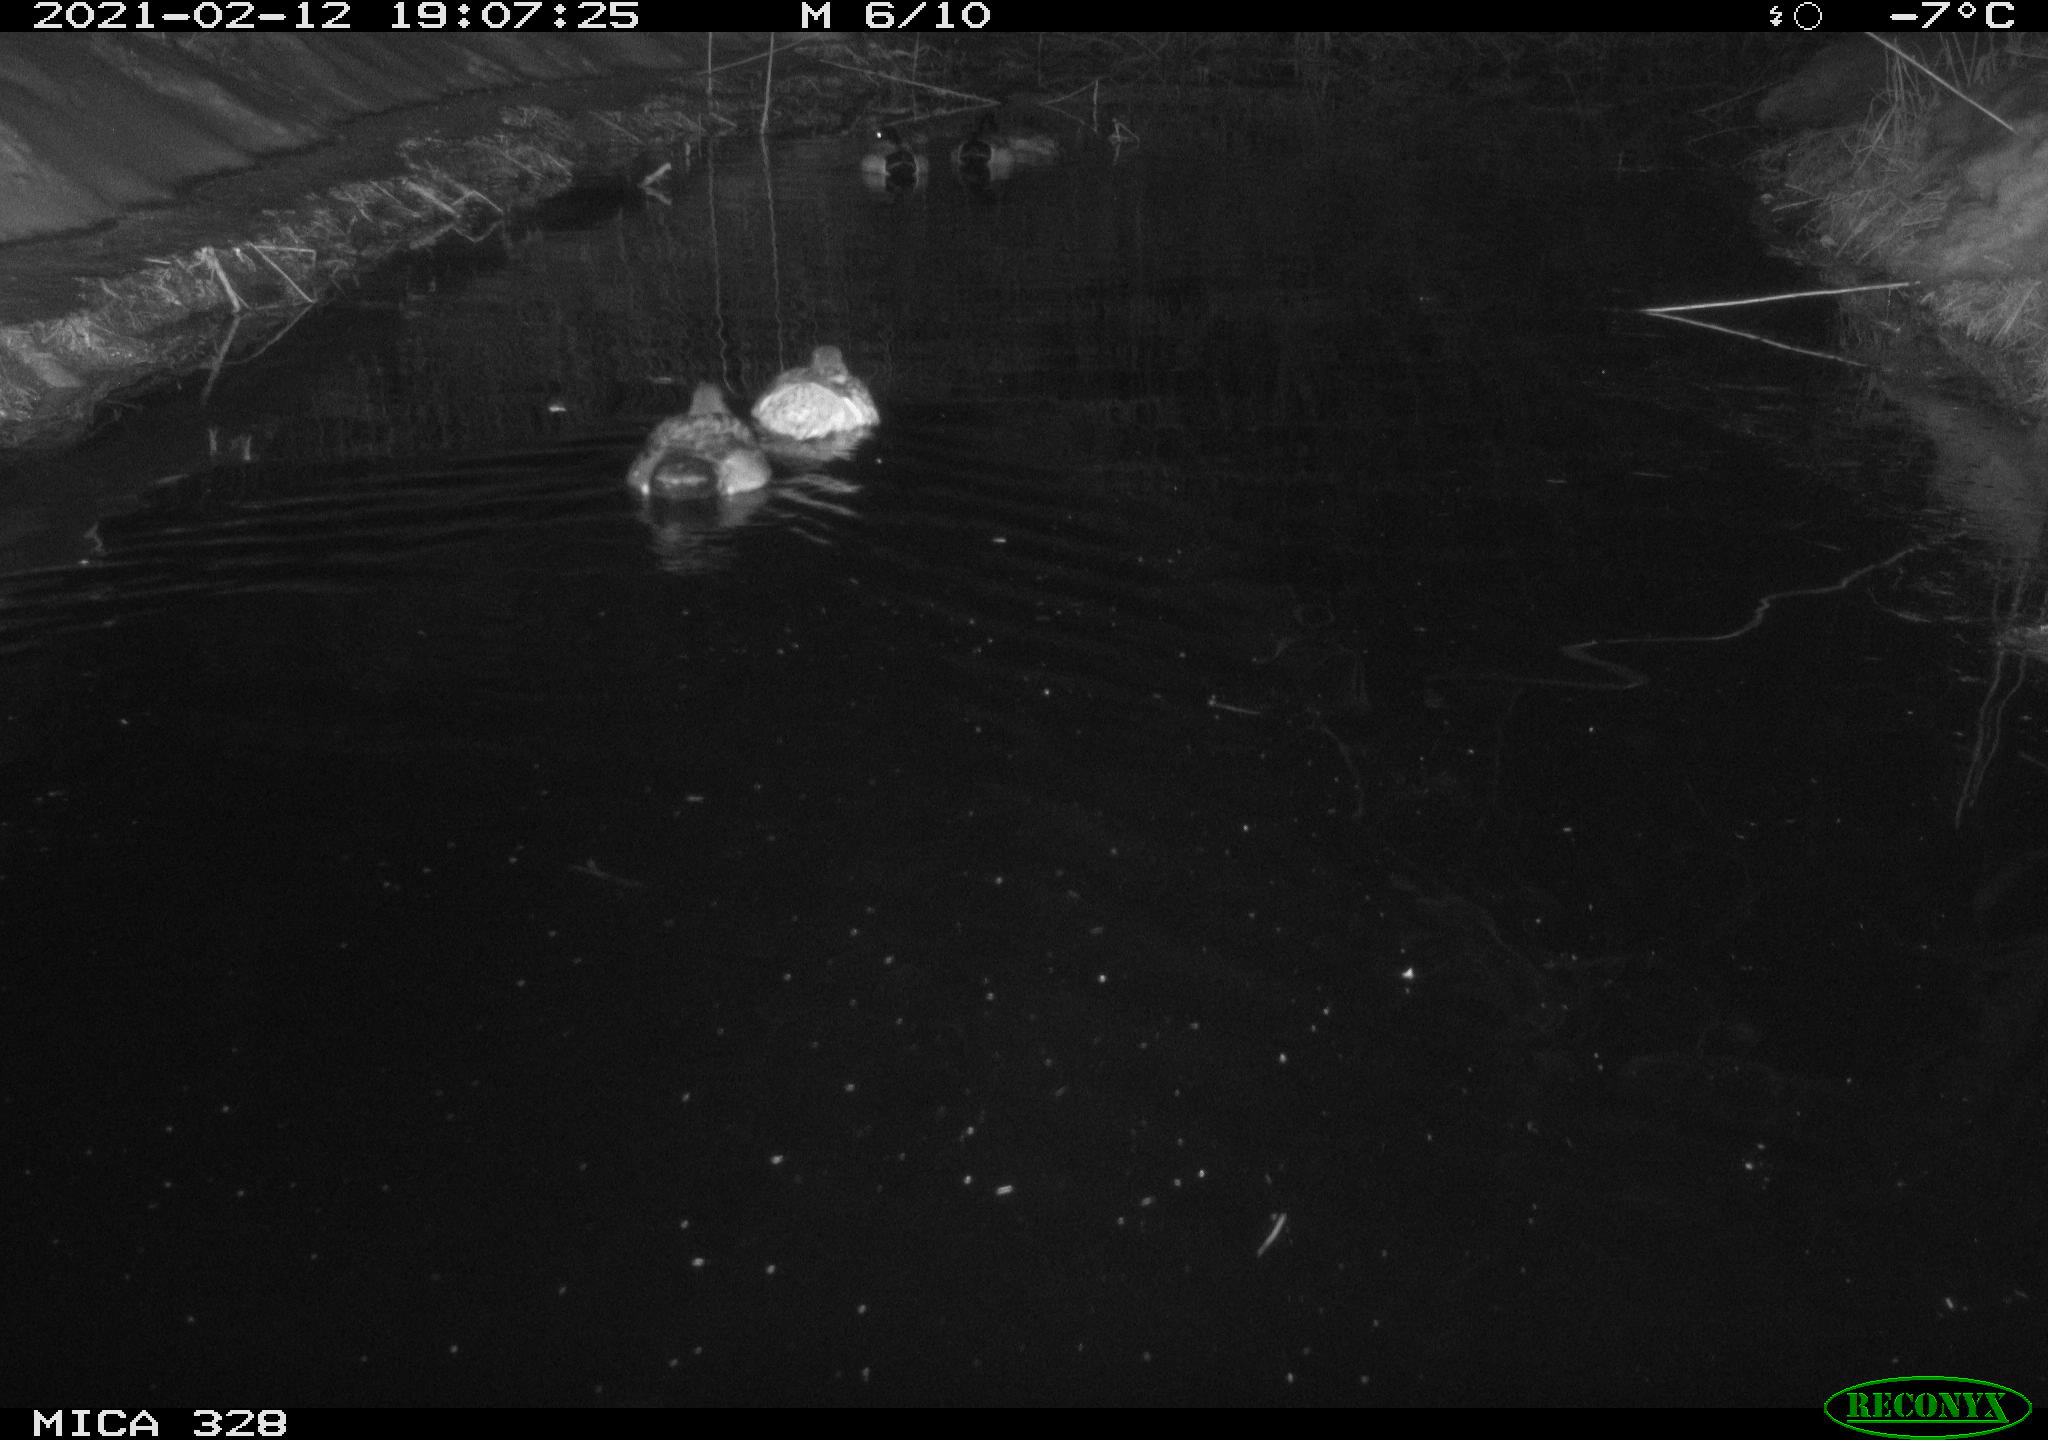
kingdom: Animalia
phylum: Chordata
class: Aves
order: Anseriformes
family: Anatidae
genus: Anas
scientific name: Anas
